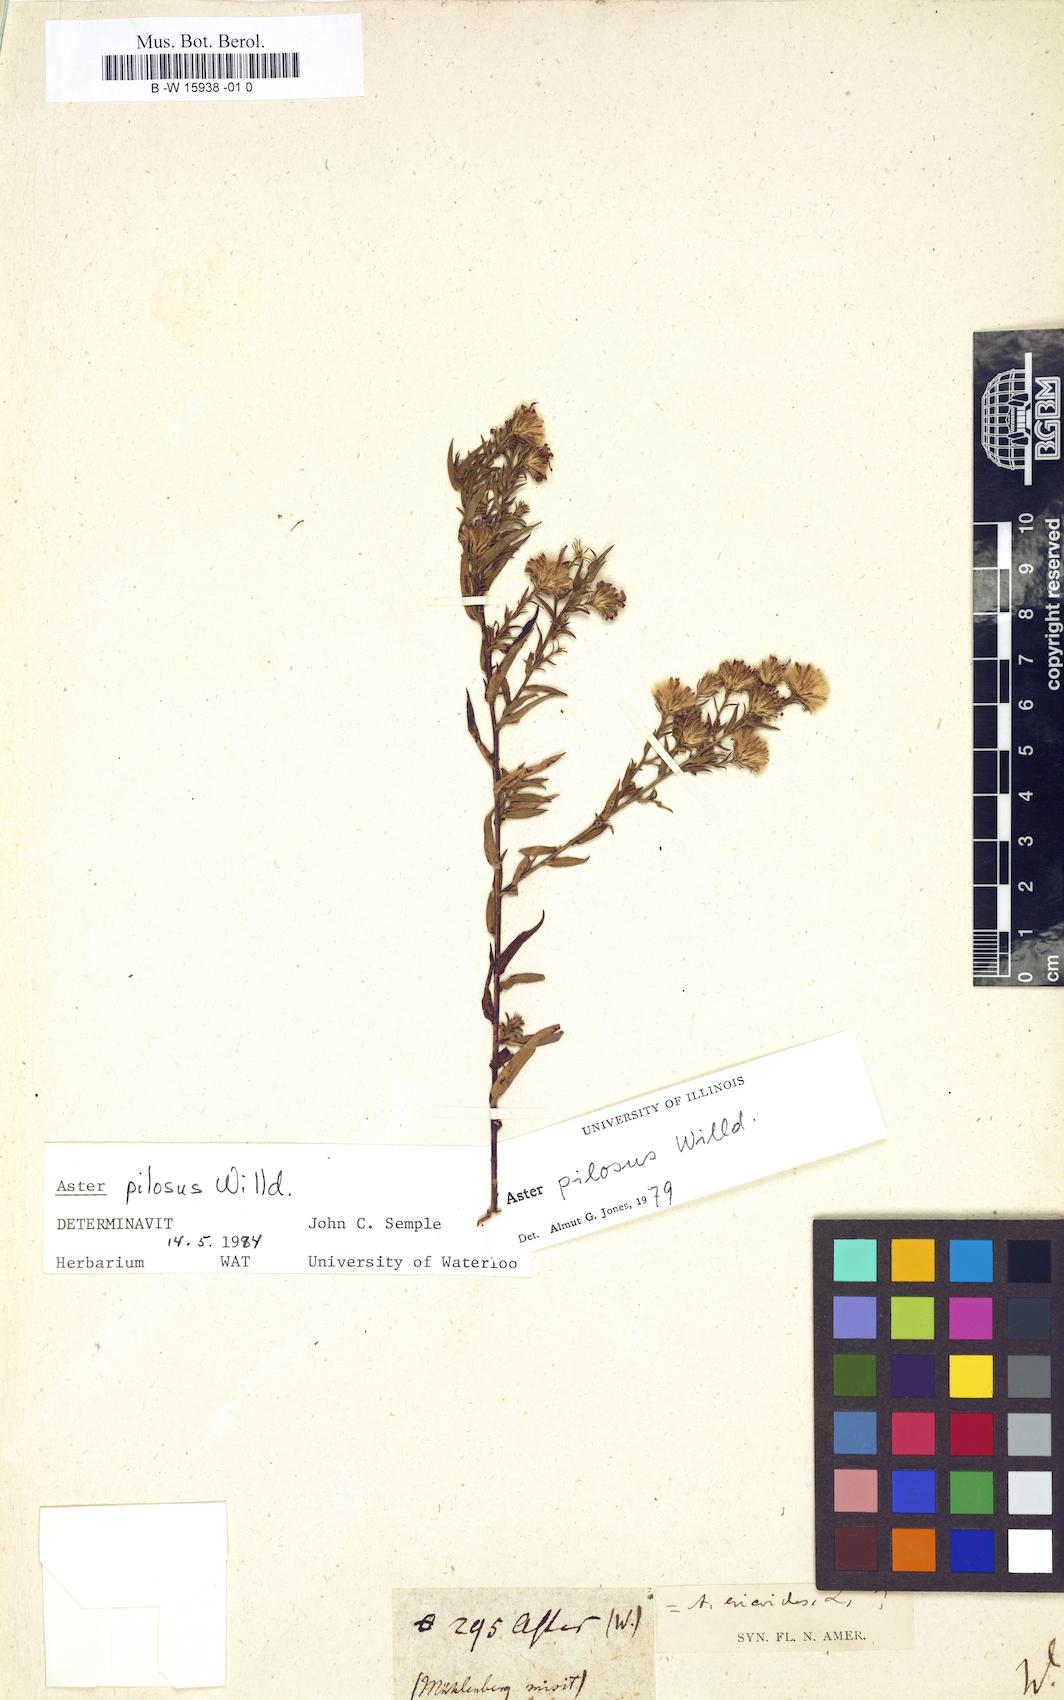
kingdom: Plantae
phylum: Tracheophyta
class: Magnoliopsida
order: Asterales
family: Asteraceae
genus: Aster
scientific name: Aster
